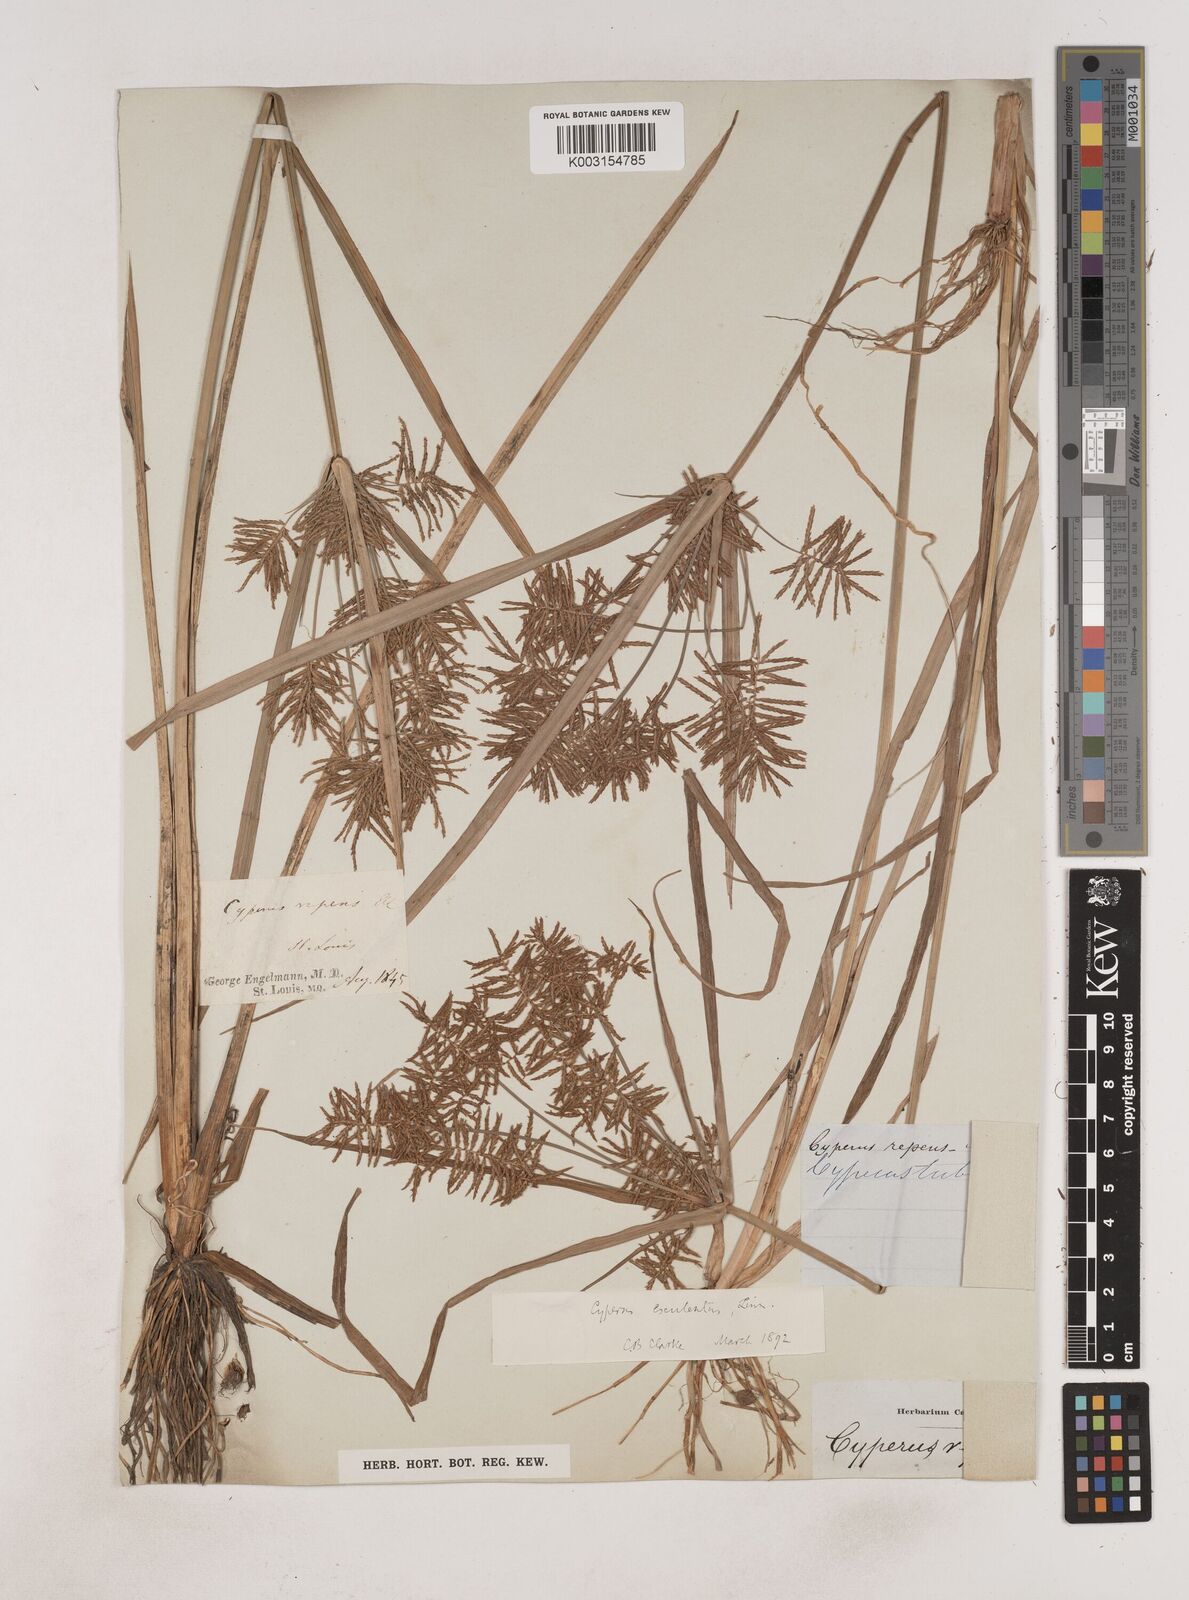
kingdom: Plantae
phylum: Tracheophyta
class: Liliopsida
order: Poales
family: Cyperaceae
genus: Cyperus
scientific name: Cyperus esculentus
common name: Yellow nutsedge
